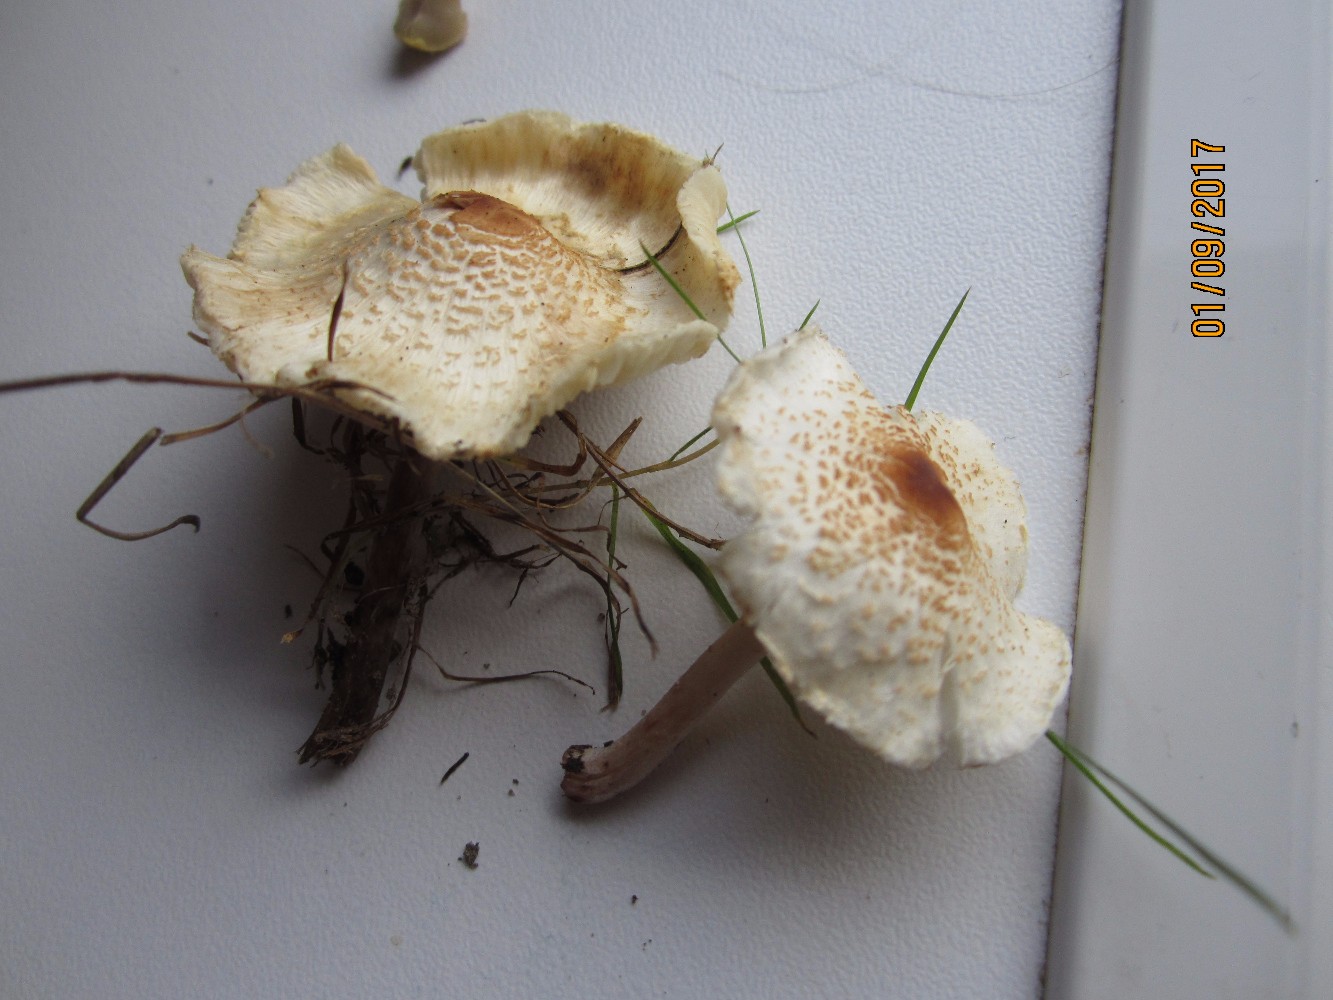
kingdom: Fungi
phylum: Basidiomycota
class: Agaricomycetes
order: Agaricales
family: Agaricaceae
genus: Lepiota
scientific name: Lepiota cristata
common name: stinkende parasolhat
